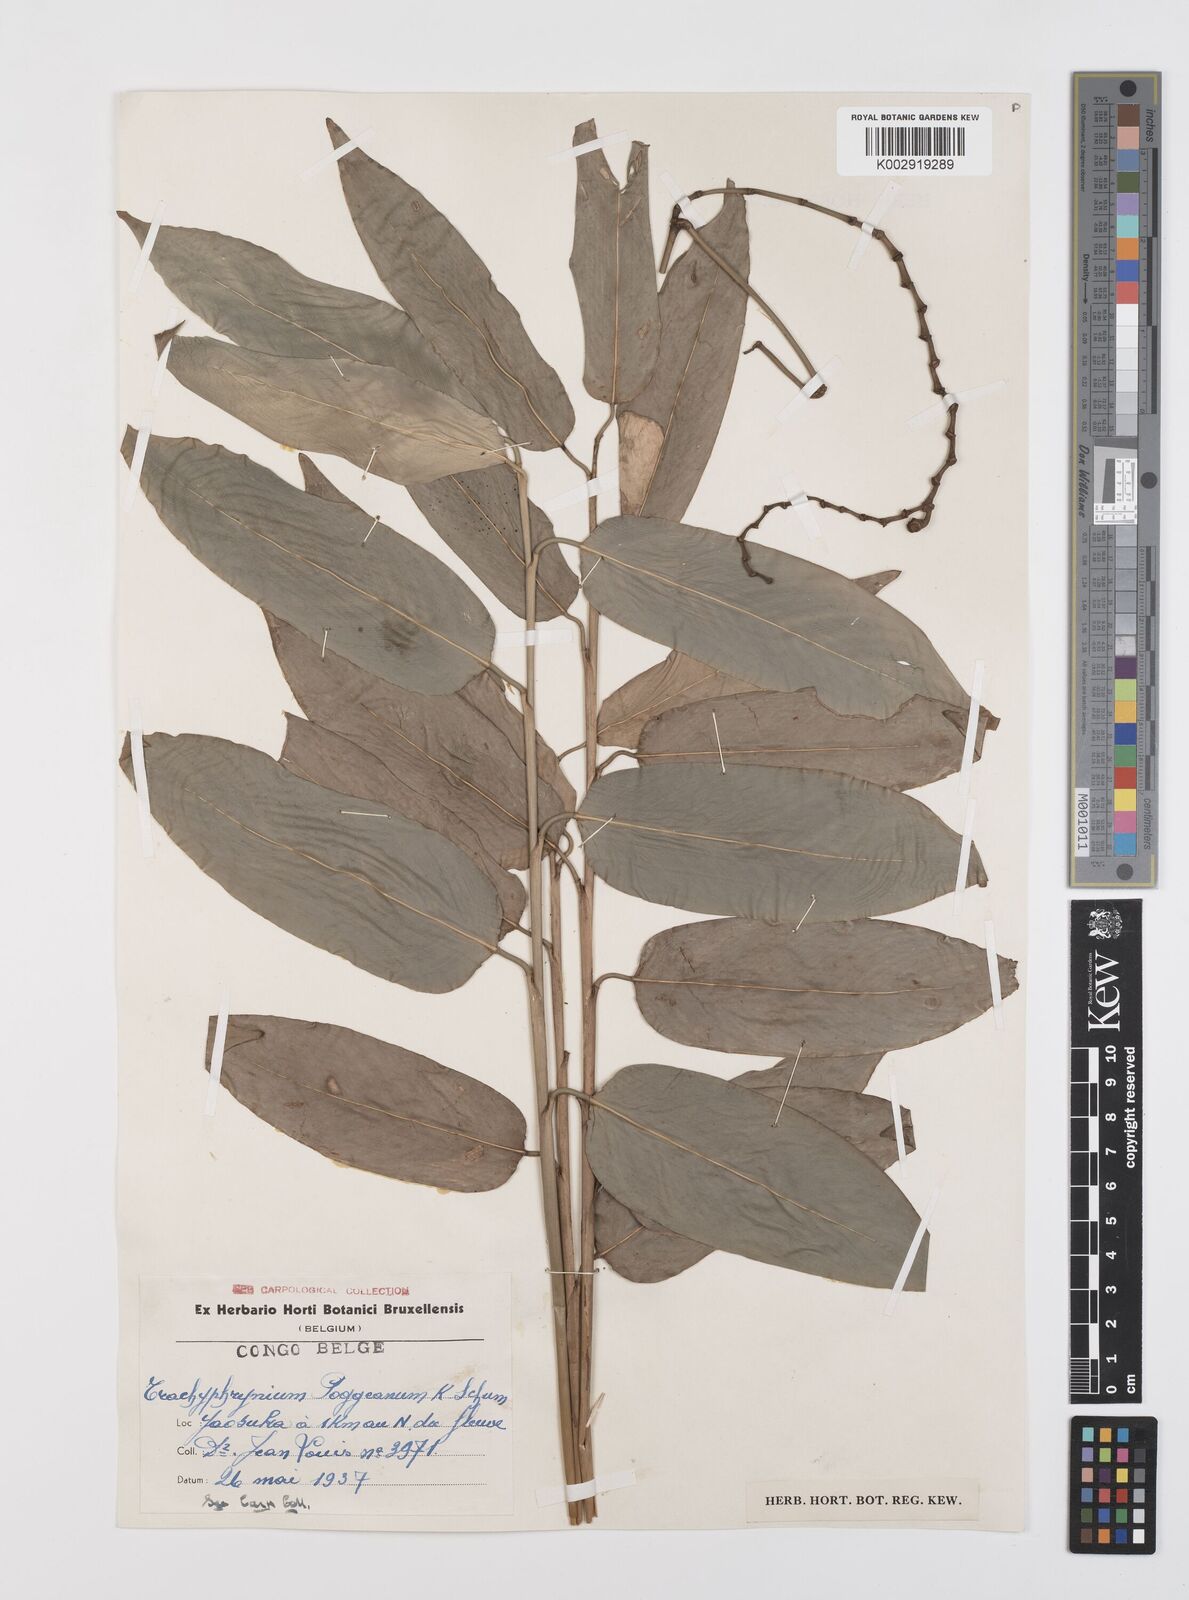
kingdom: Plantae
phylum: Tracheophyta
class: Liliopsida
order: Zingiberales
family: Marantaceae
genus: Hypselodelphys
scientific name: Hypselodelphys poggeana
